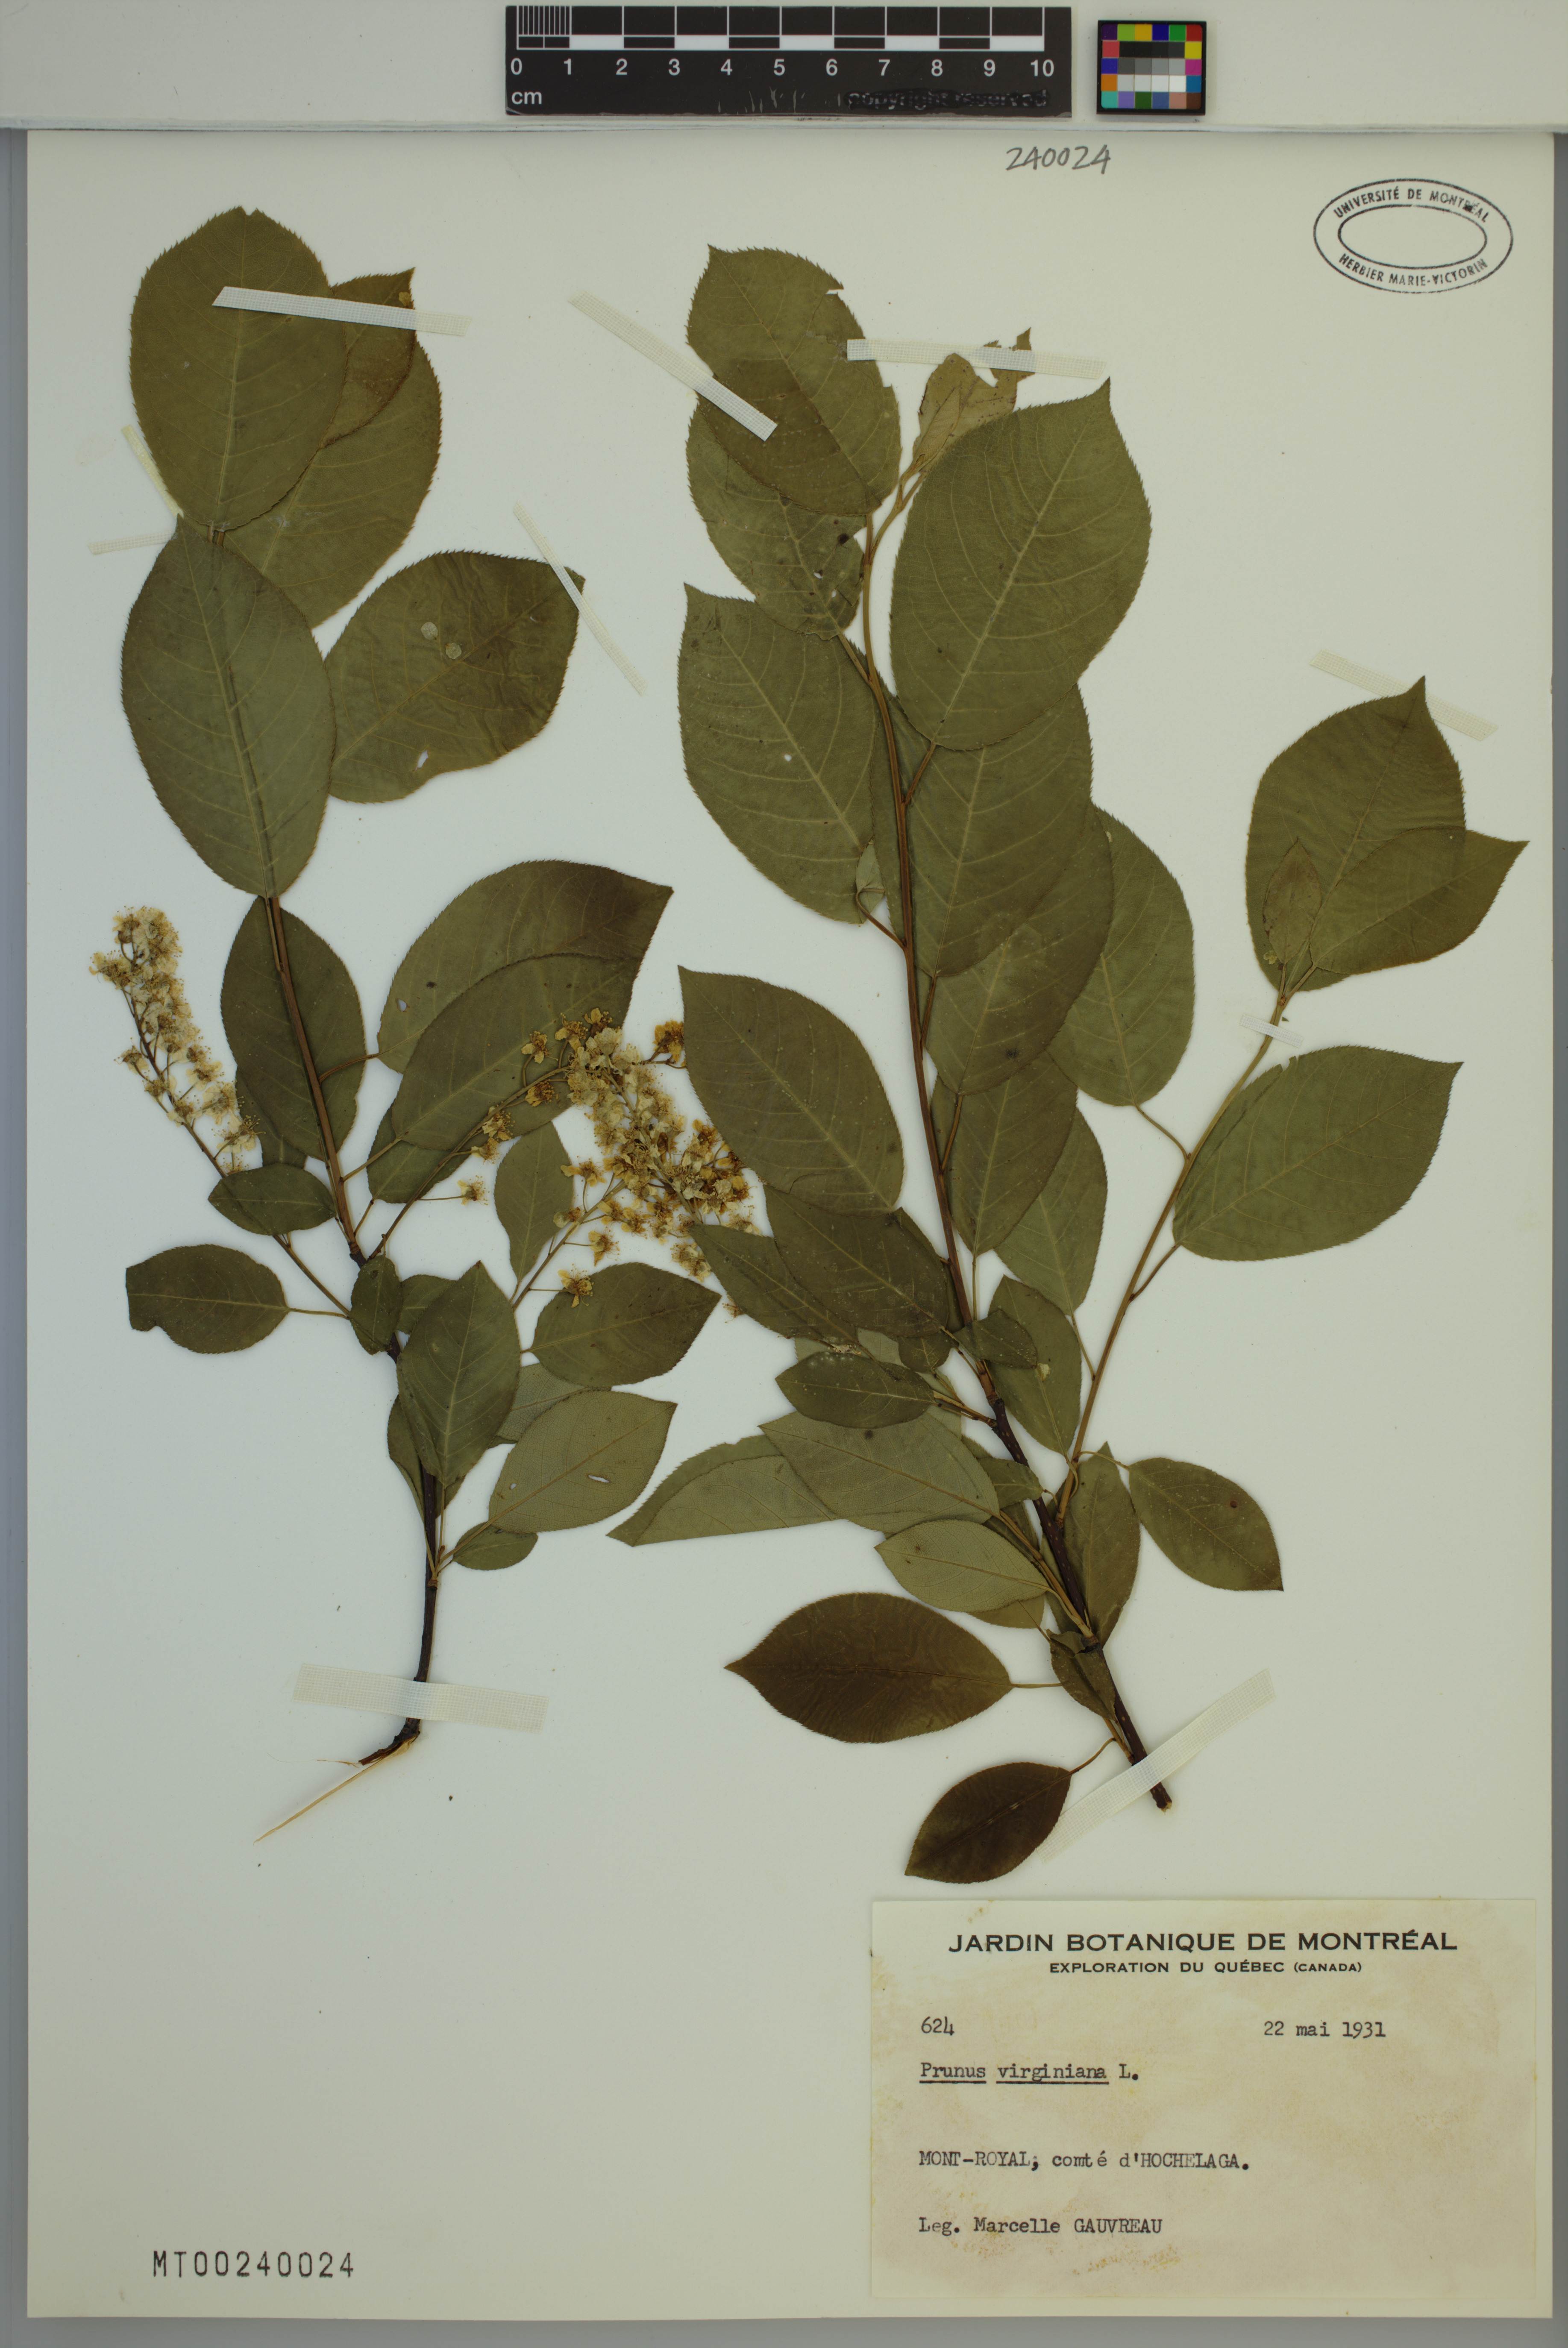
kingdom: Plantae
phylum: Tracheophyta
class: Magnoliopsida
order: Rosales
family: Rosaceae
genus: Prunus
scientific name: Prunus virginiana
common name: Chokecherry
